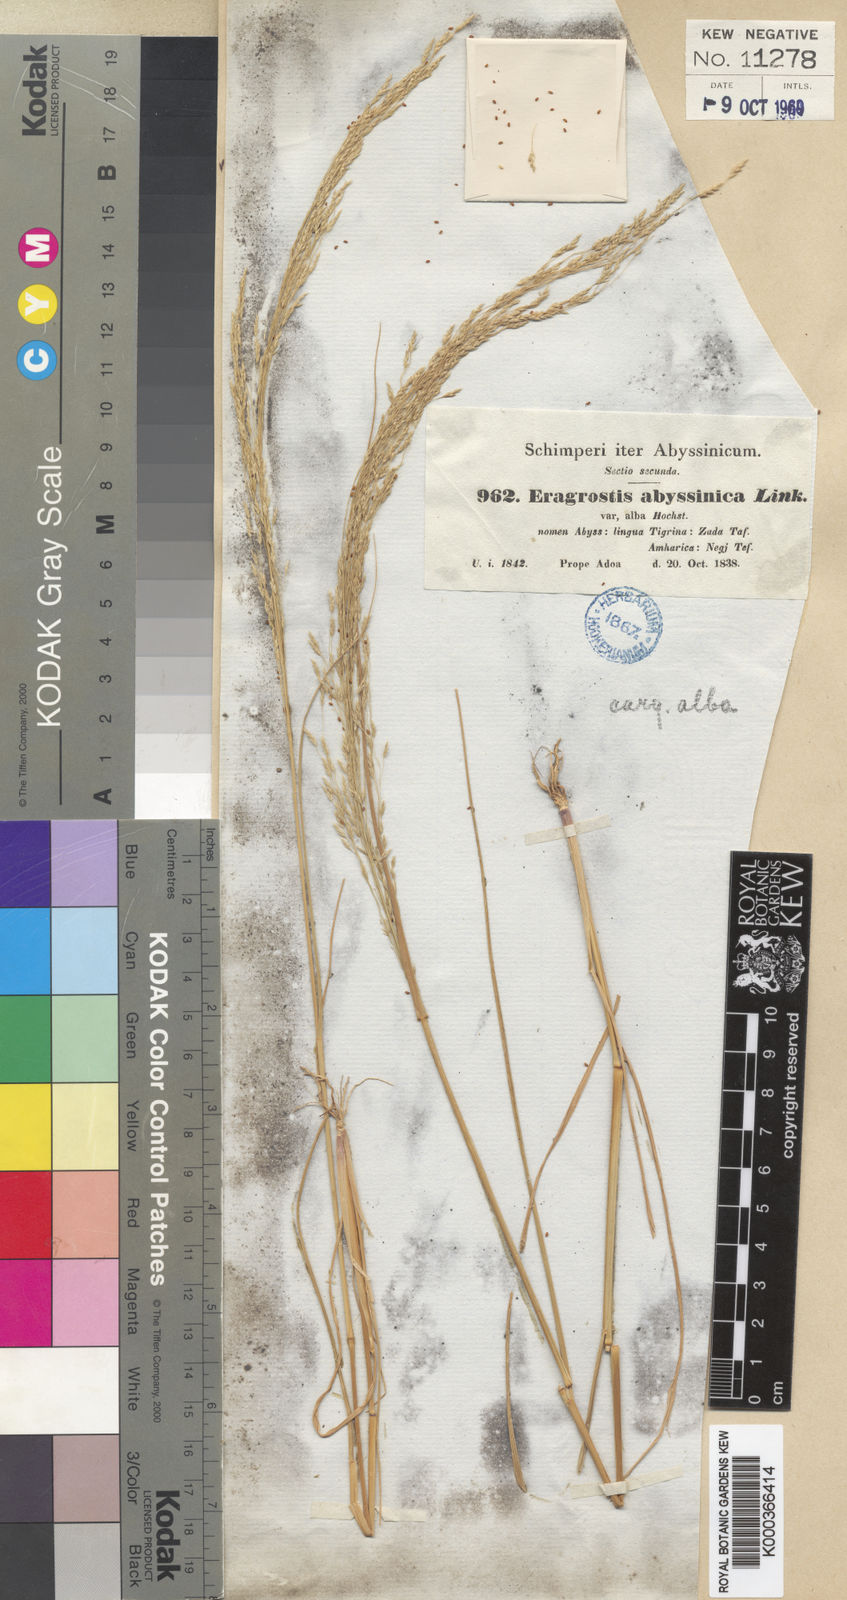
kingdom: Plantae
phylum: Tracheophyta
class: Liliopsida
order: Poales
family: Poaceae
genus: Eragrostis
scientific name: Eragrostis tef
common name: Teff
